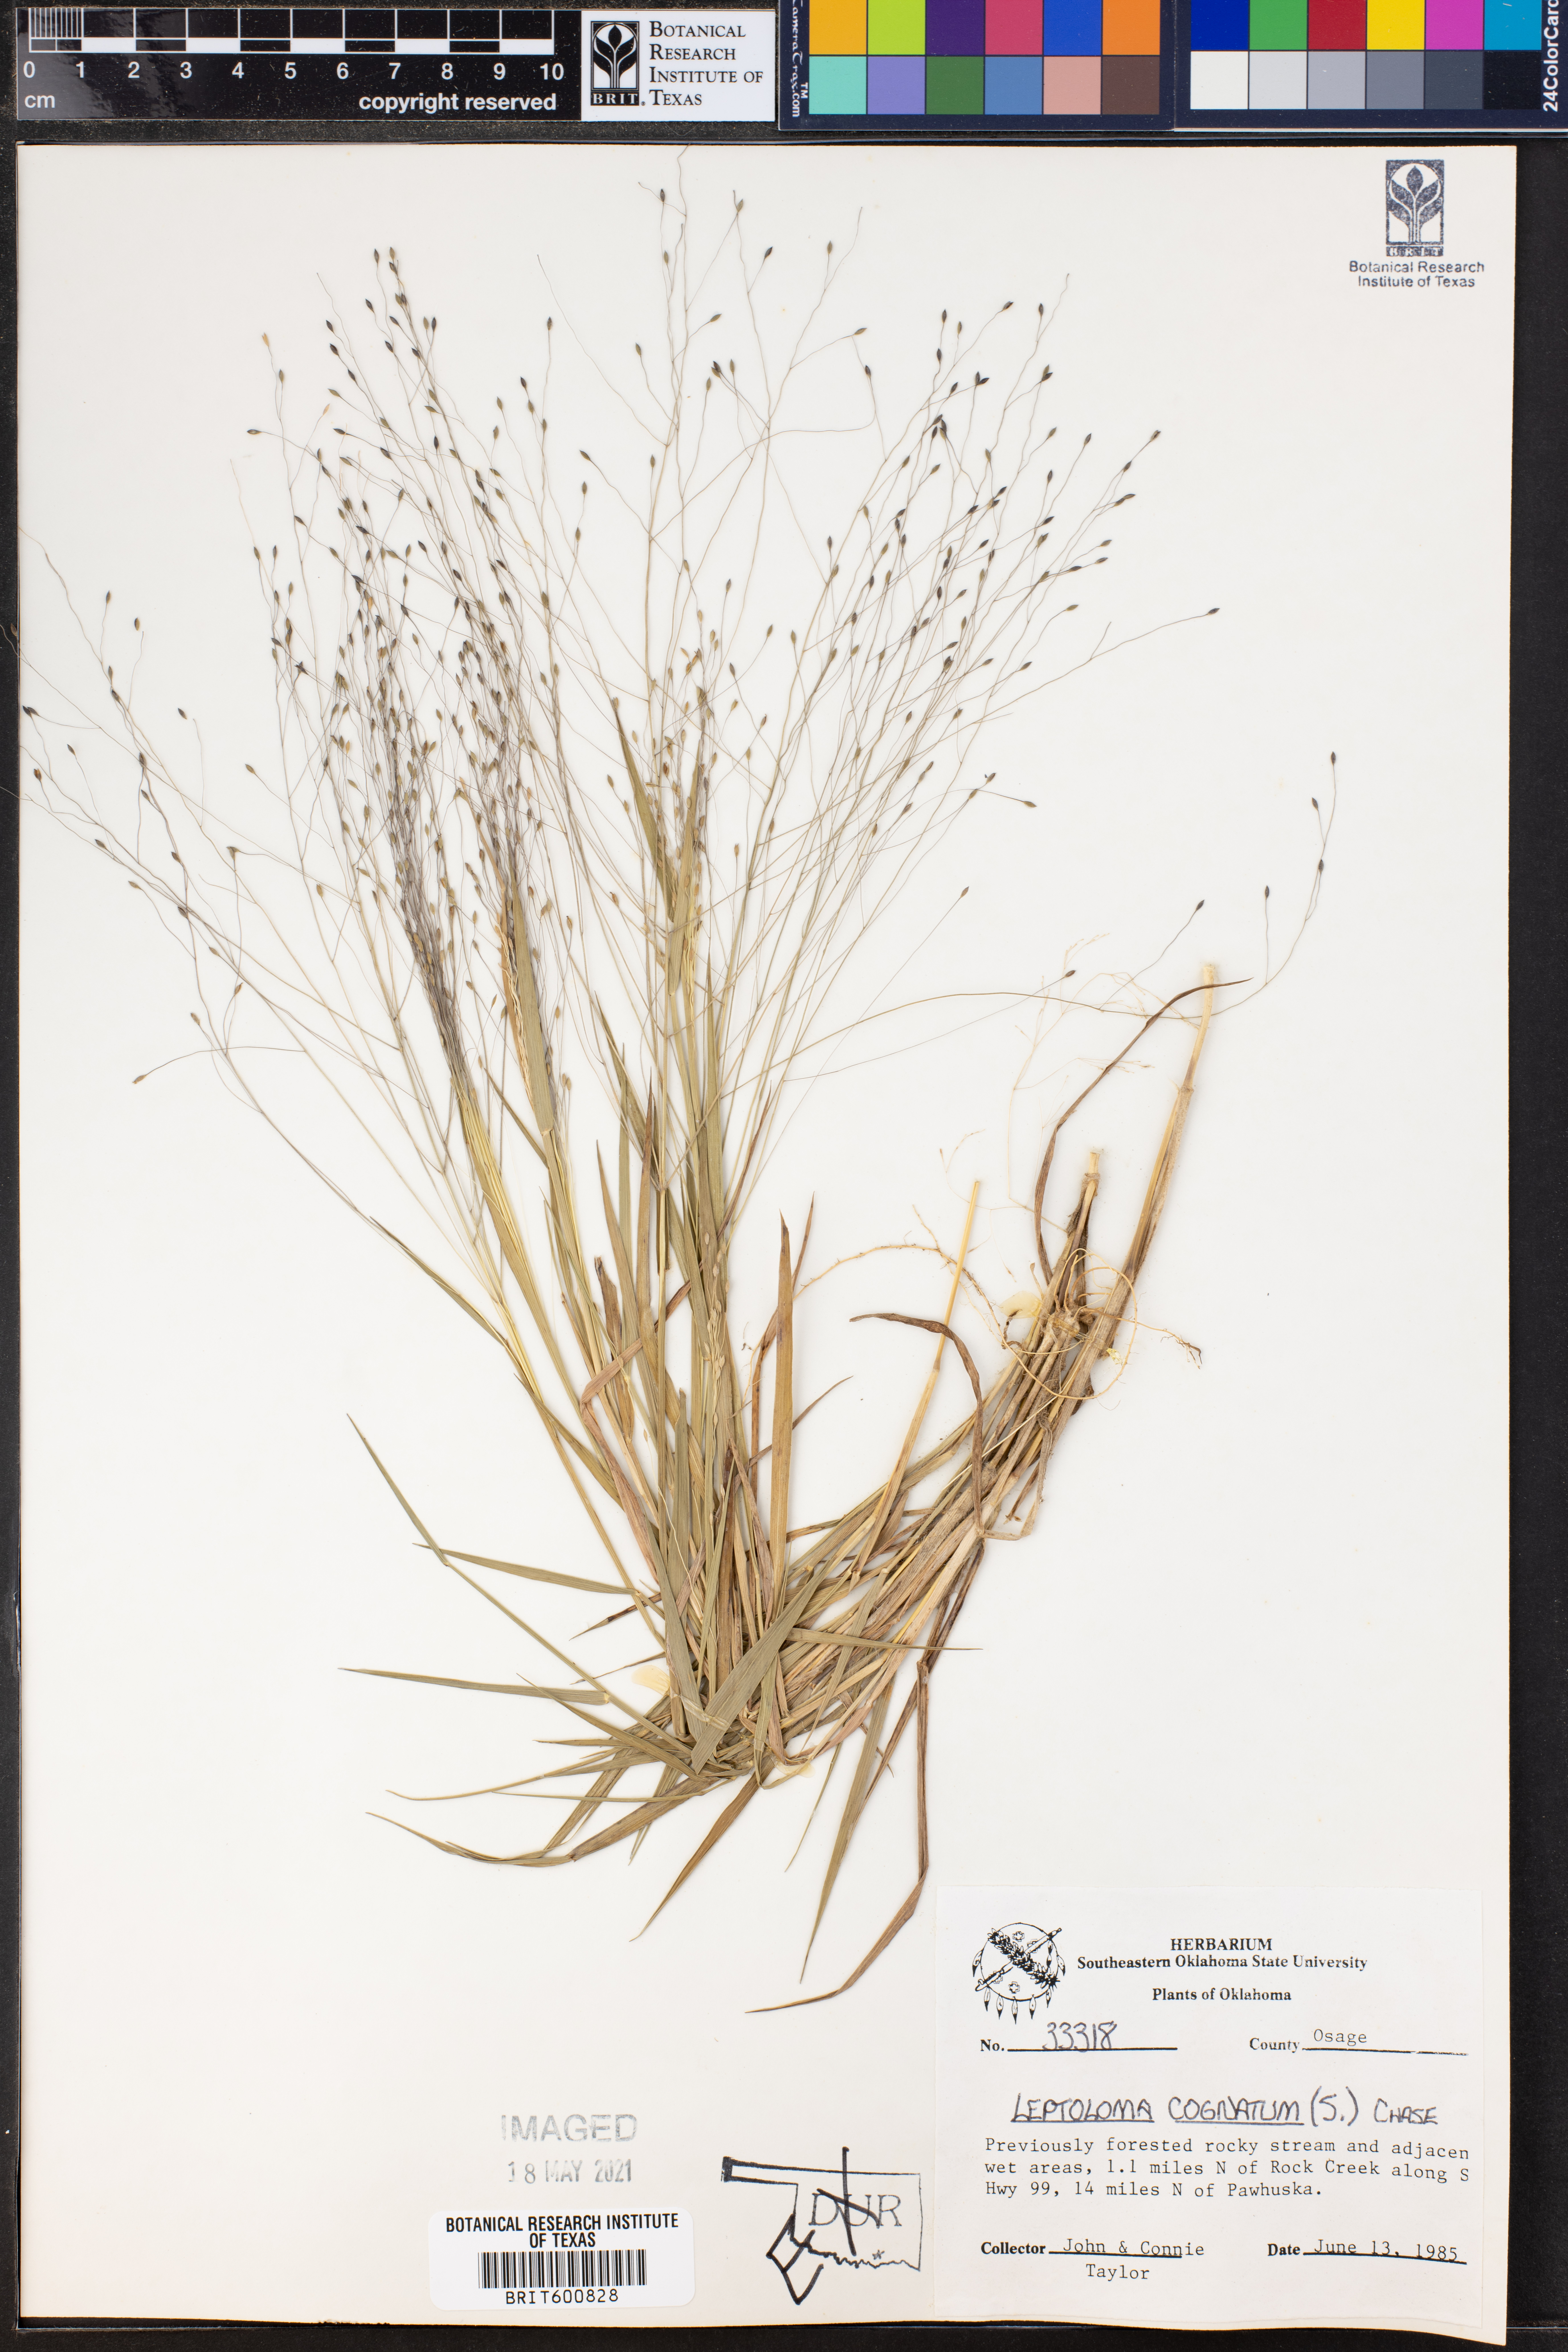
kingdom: Plantae
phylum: Tracheophyta
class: Liliopsida
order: Poales
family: Poaceae
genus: Digitaria
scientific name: Digitaria cognata
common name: Fall witchgrass
